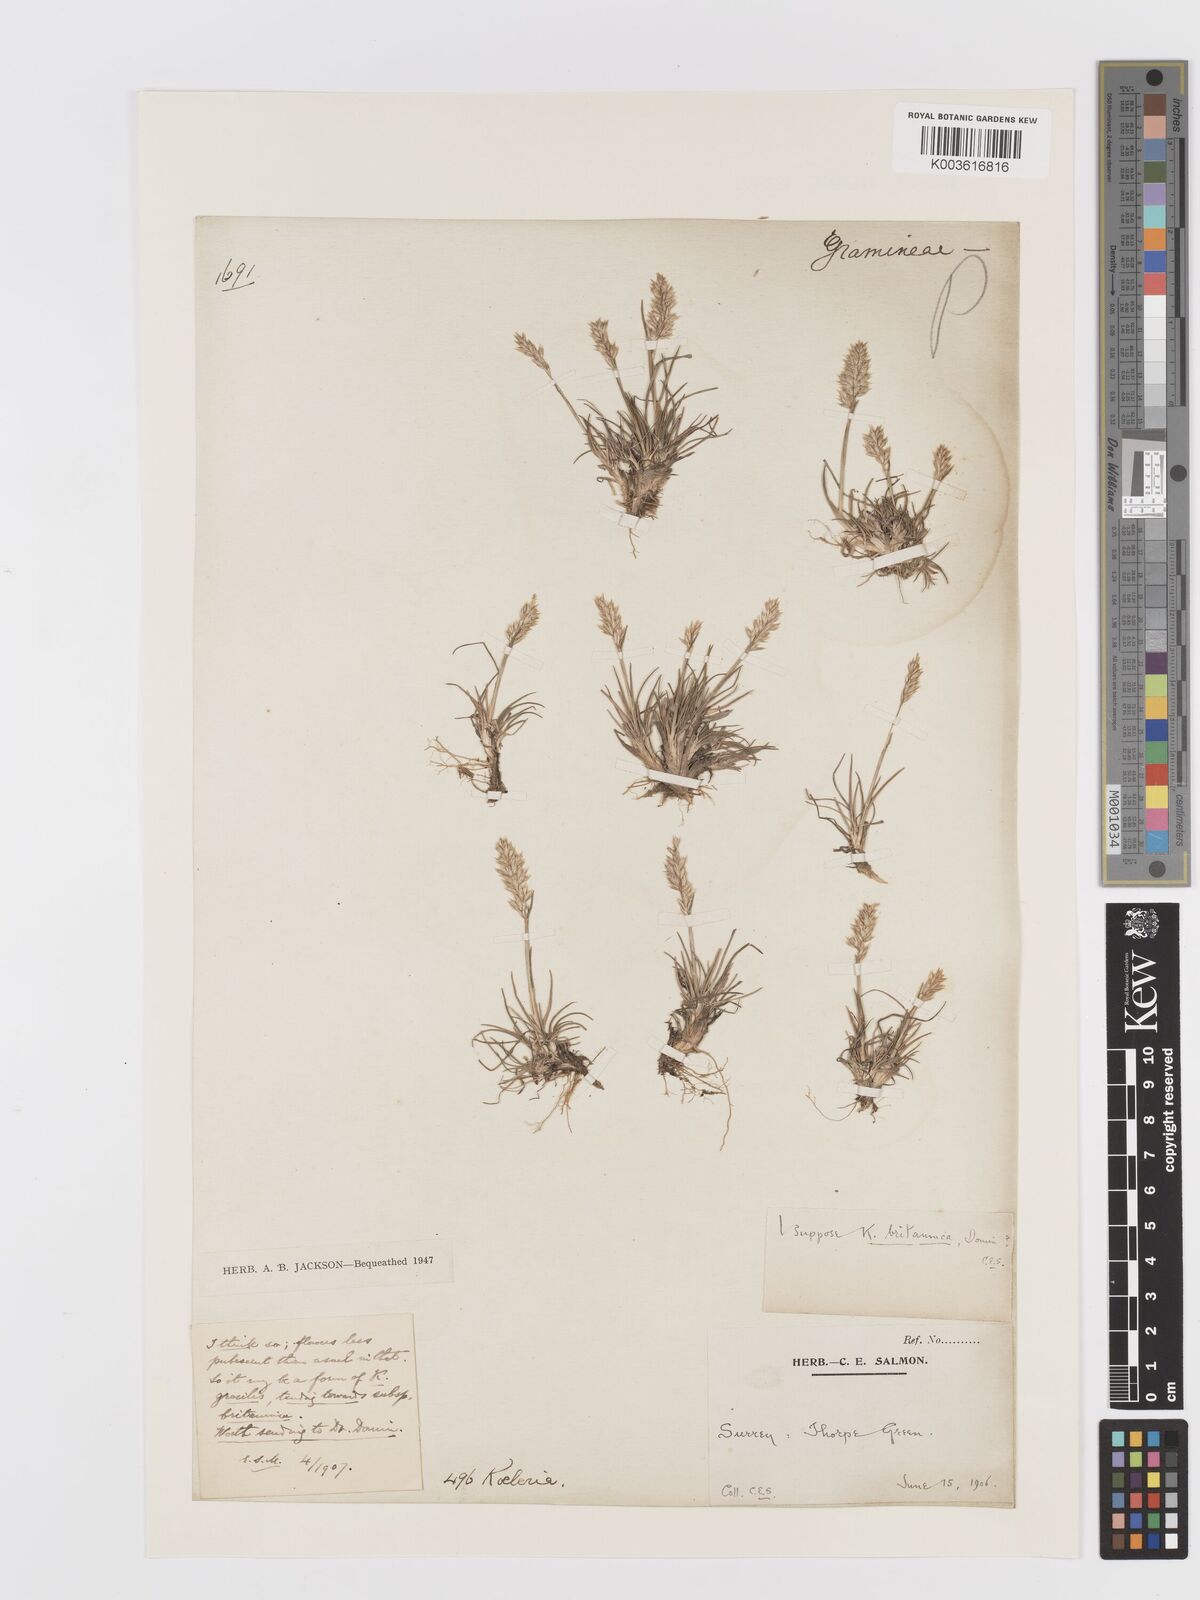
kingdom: Plantae
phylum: Tracheophyta
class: Liliopsida
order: Poales
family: Poaceae
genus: Koeleria
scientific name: Koeleria macrantha
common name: Crested hair-grass
